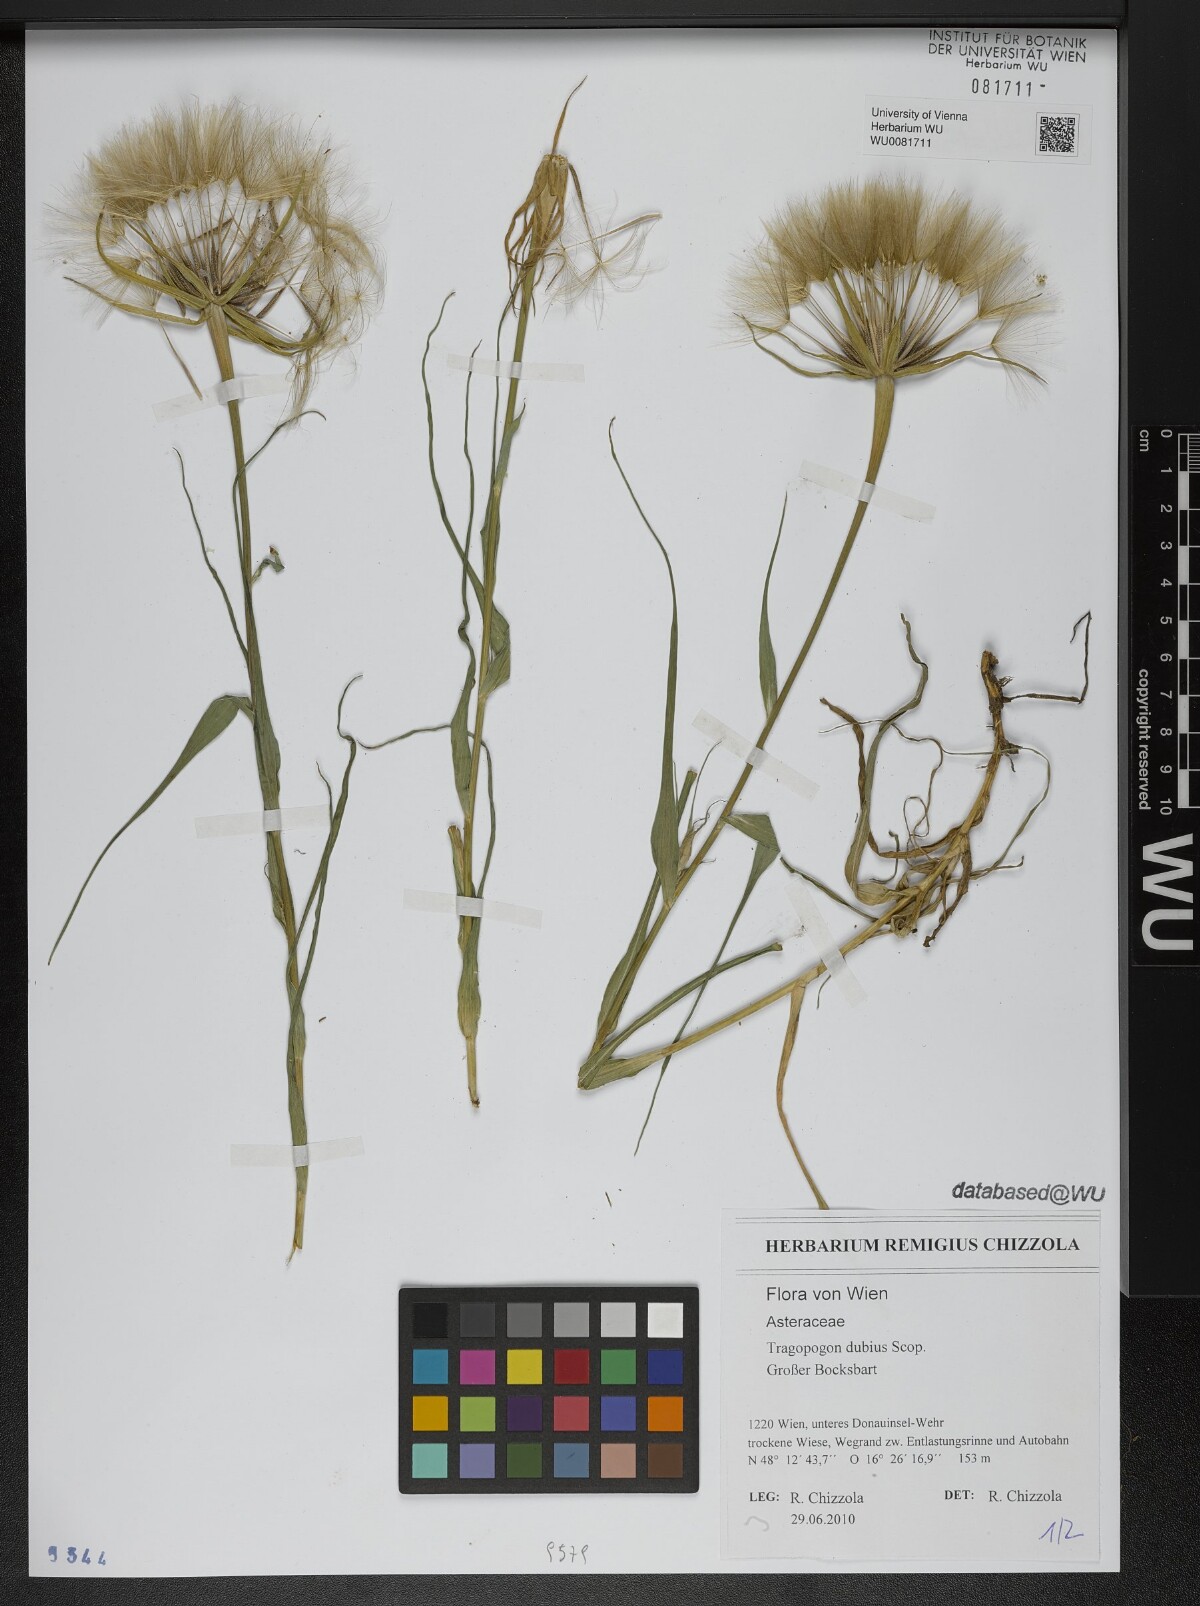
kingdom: Plantae
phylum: Tracheophyta
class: Magnoliopsida
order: Asterales
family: Asteraceae
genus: Tragopogon
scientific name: Tragopogon dubius
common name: Yellow salsify
